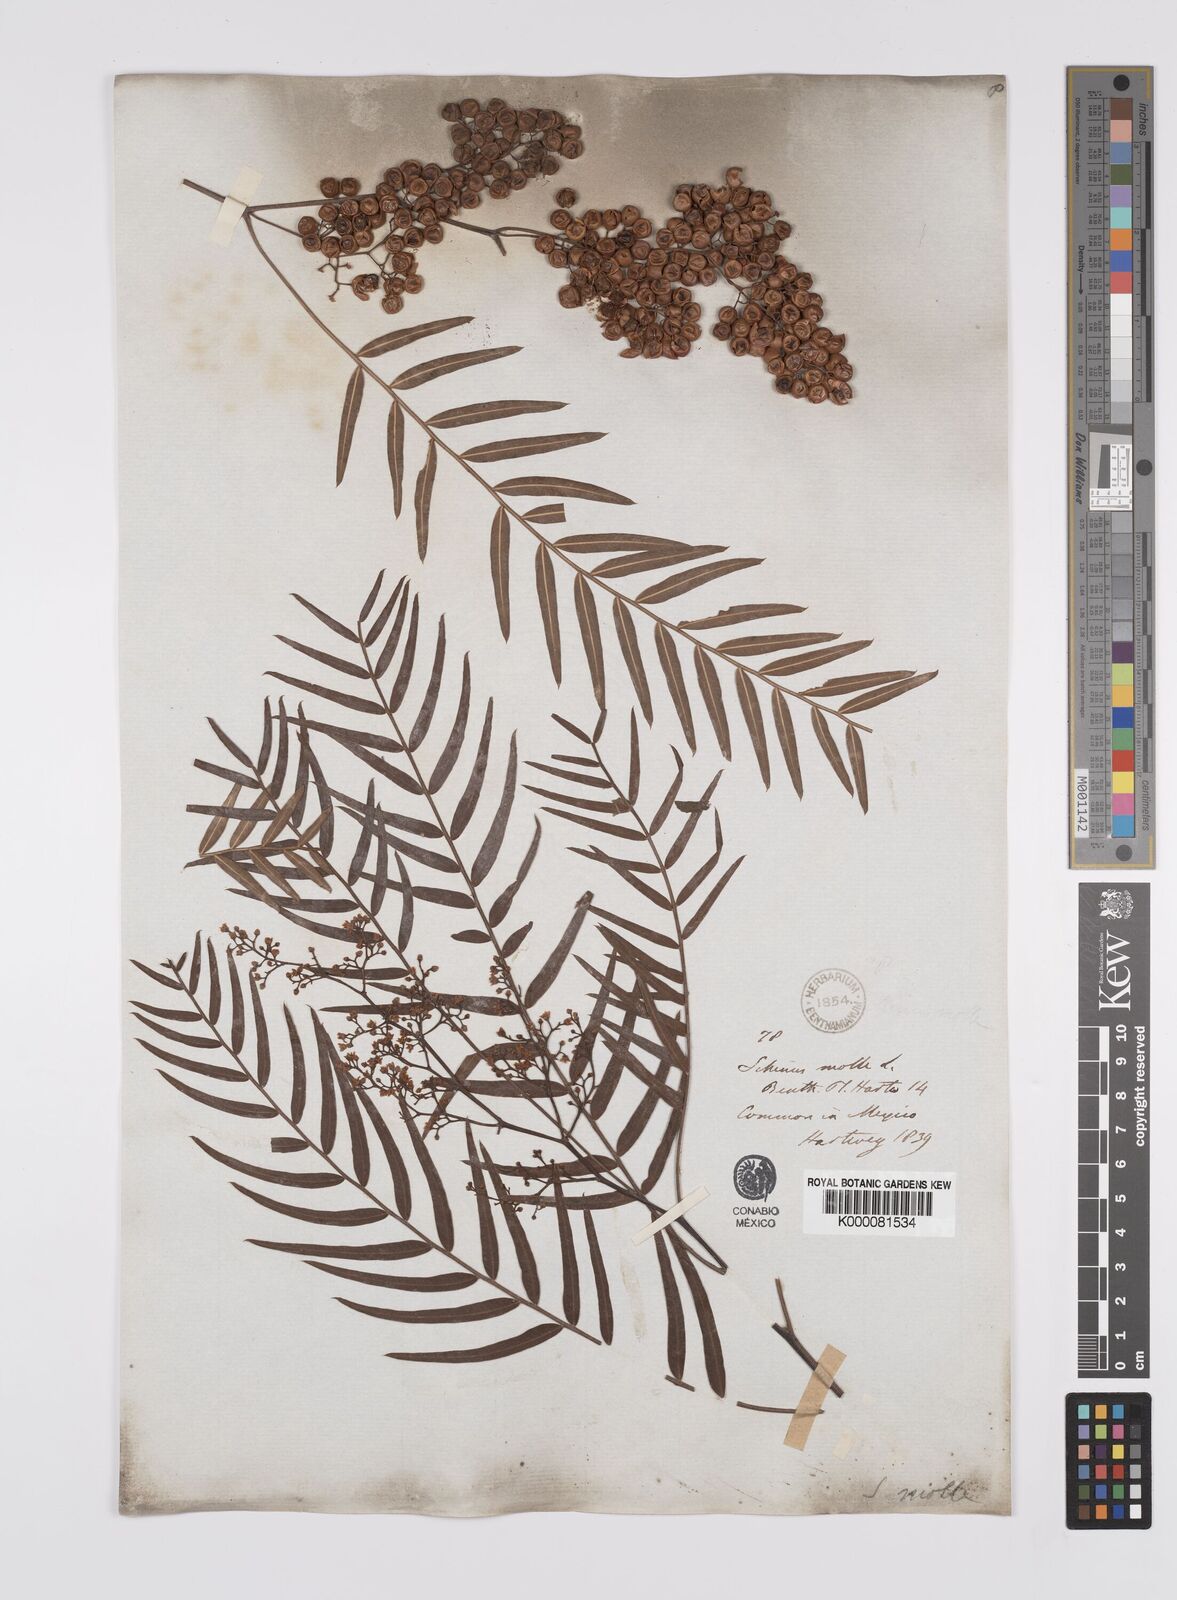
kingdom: Plantae
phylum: Tracheophyta
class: Magnoliopsida
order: Sapindales
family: Anacardiaceae
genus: Schinus
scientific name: Schinus molle
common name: Peruvian peppertree
